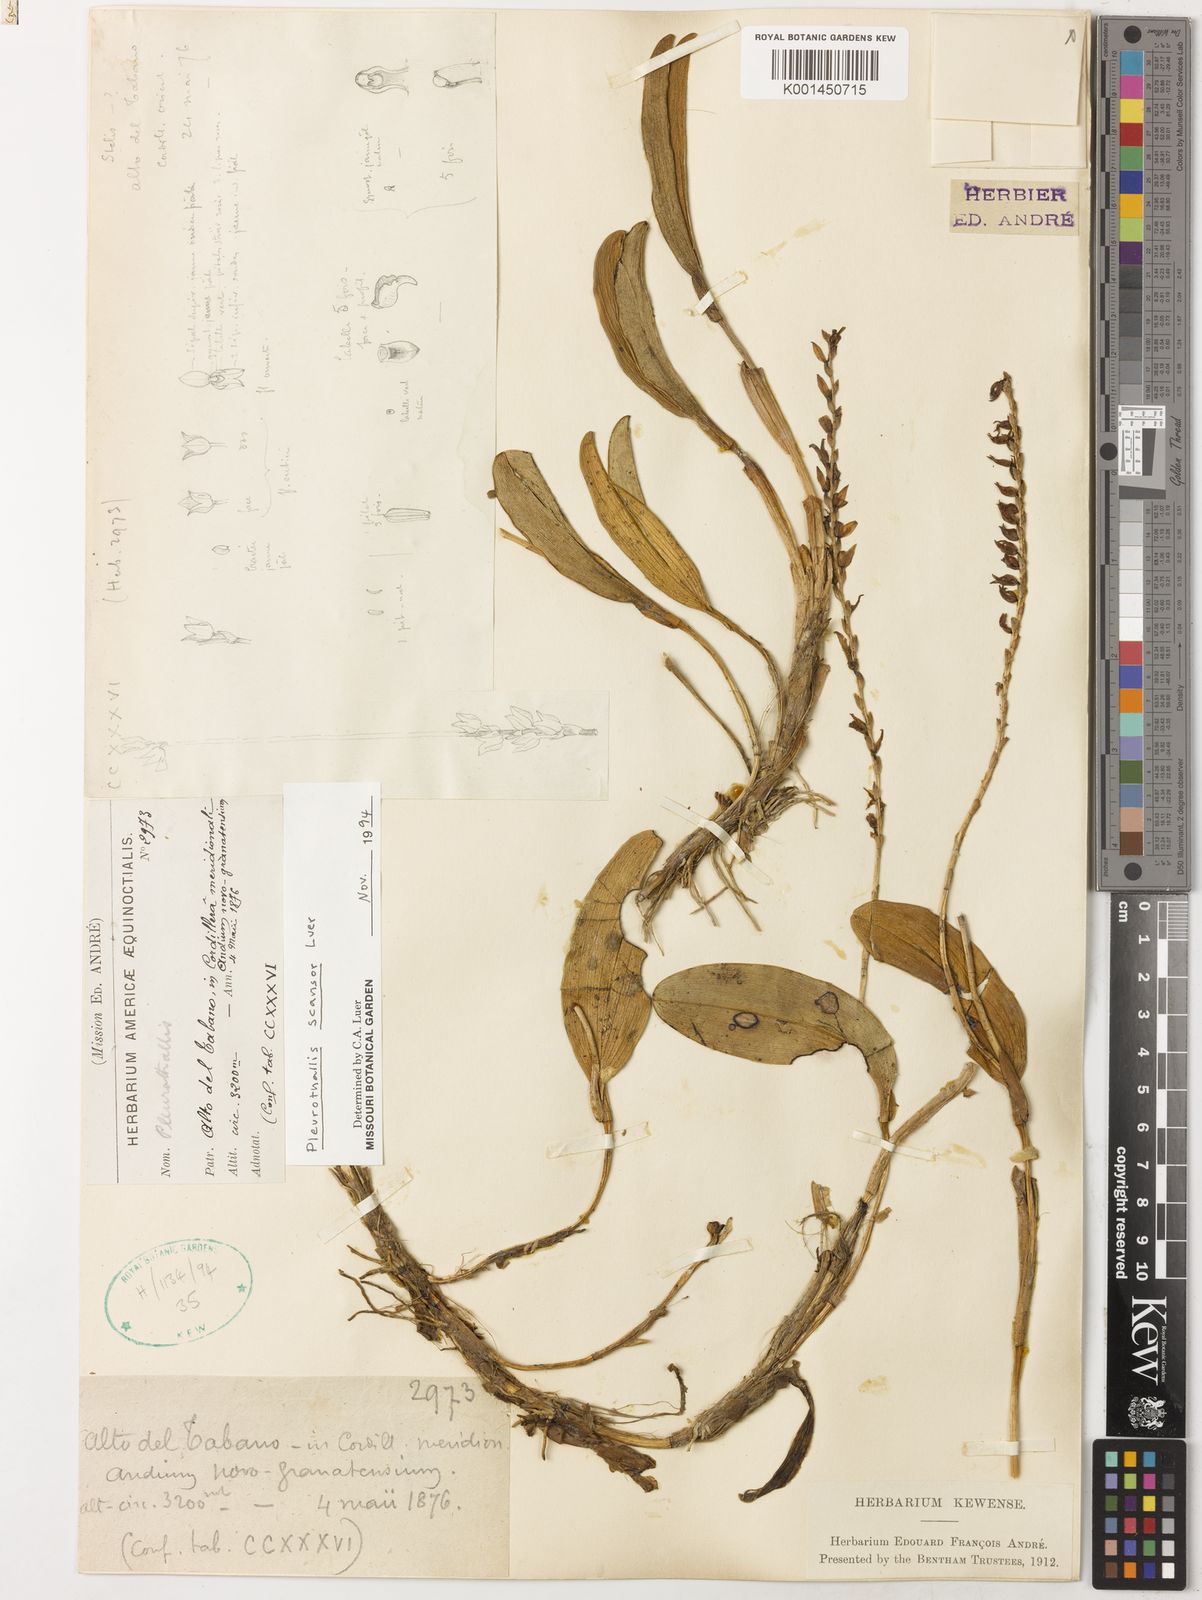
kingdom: Plantae
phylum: Tracheophyta
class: Liliopsida
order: Asparagales
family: Orchidaceae
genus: Stelis
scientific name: Stelis reptans
